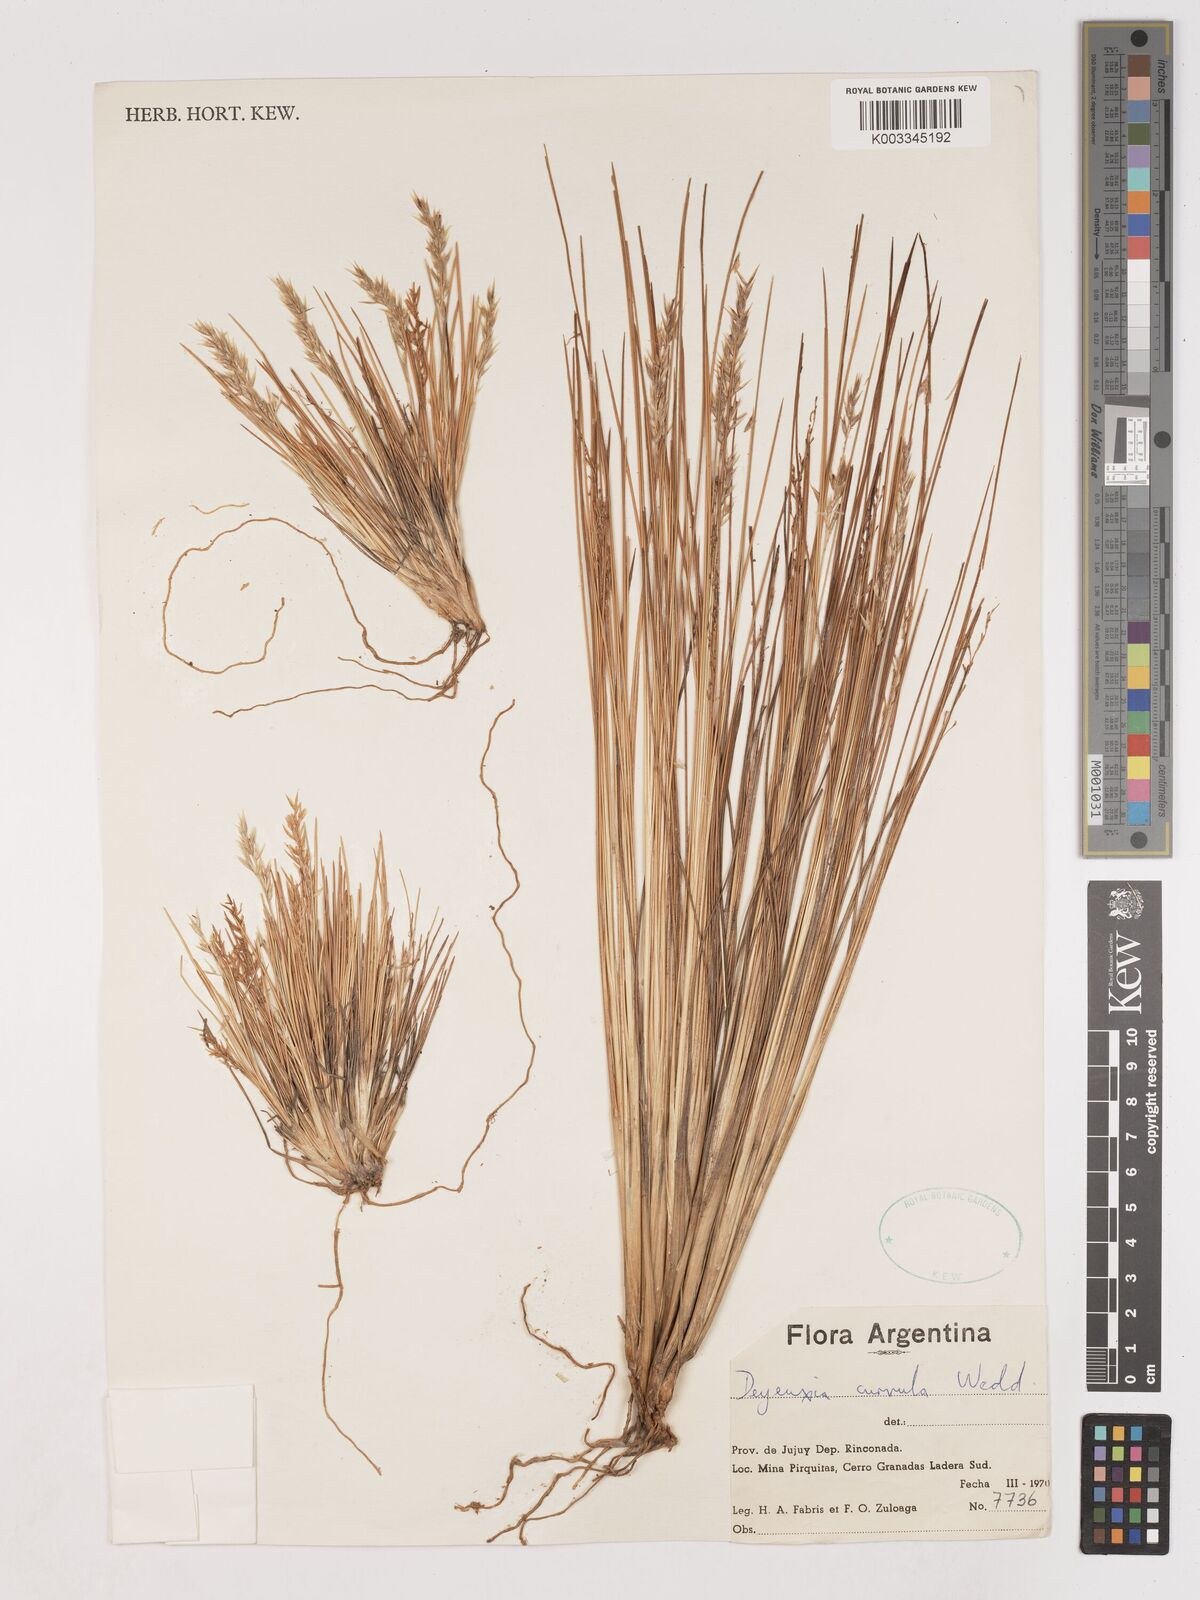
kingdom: Plantae
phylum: Tracheophyta
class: Liliopsida
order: Poales
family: Poaceae
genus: Cinnagrostis
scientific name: Cinnagrostis curvula
